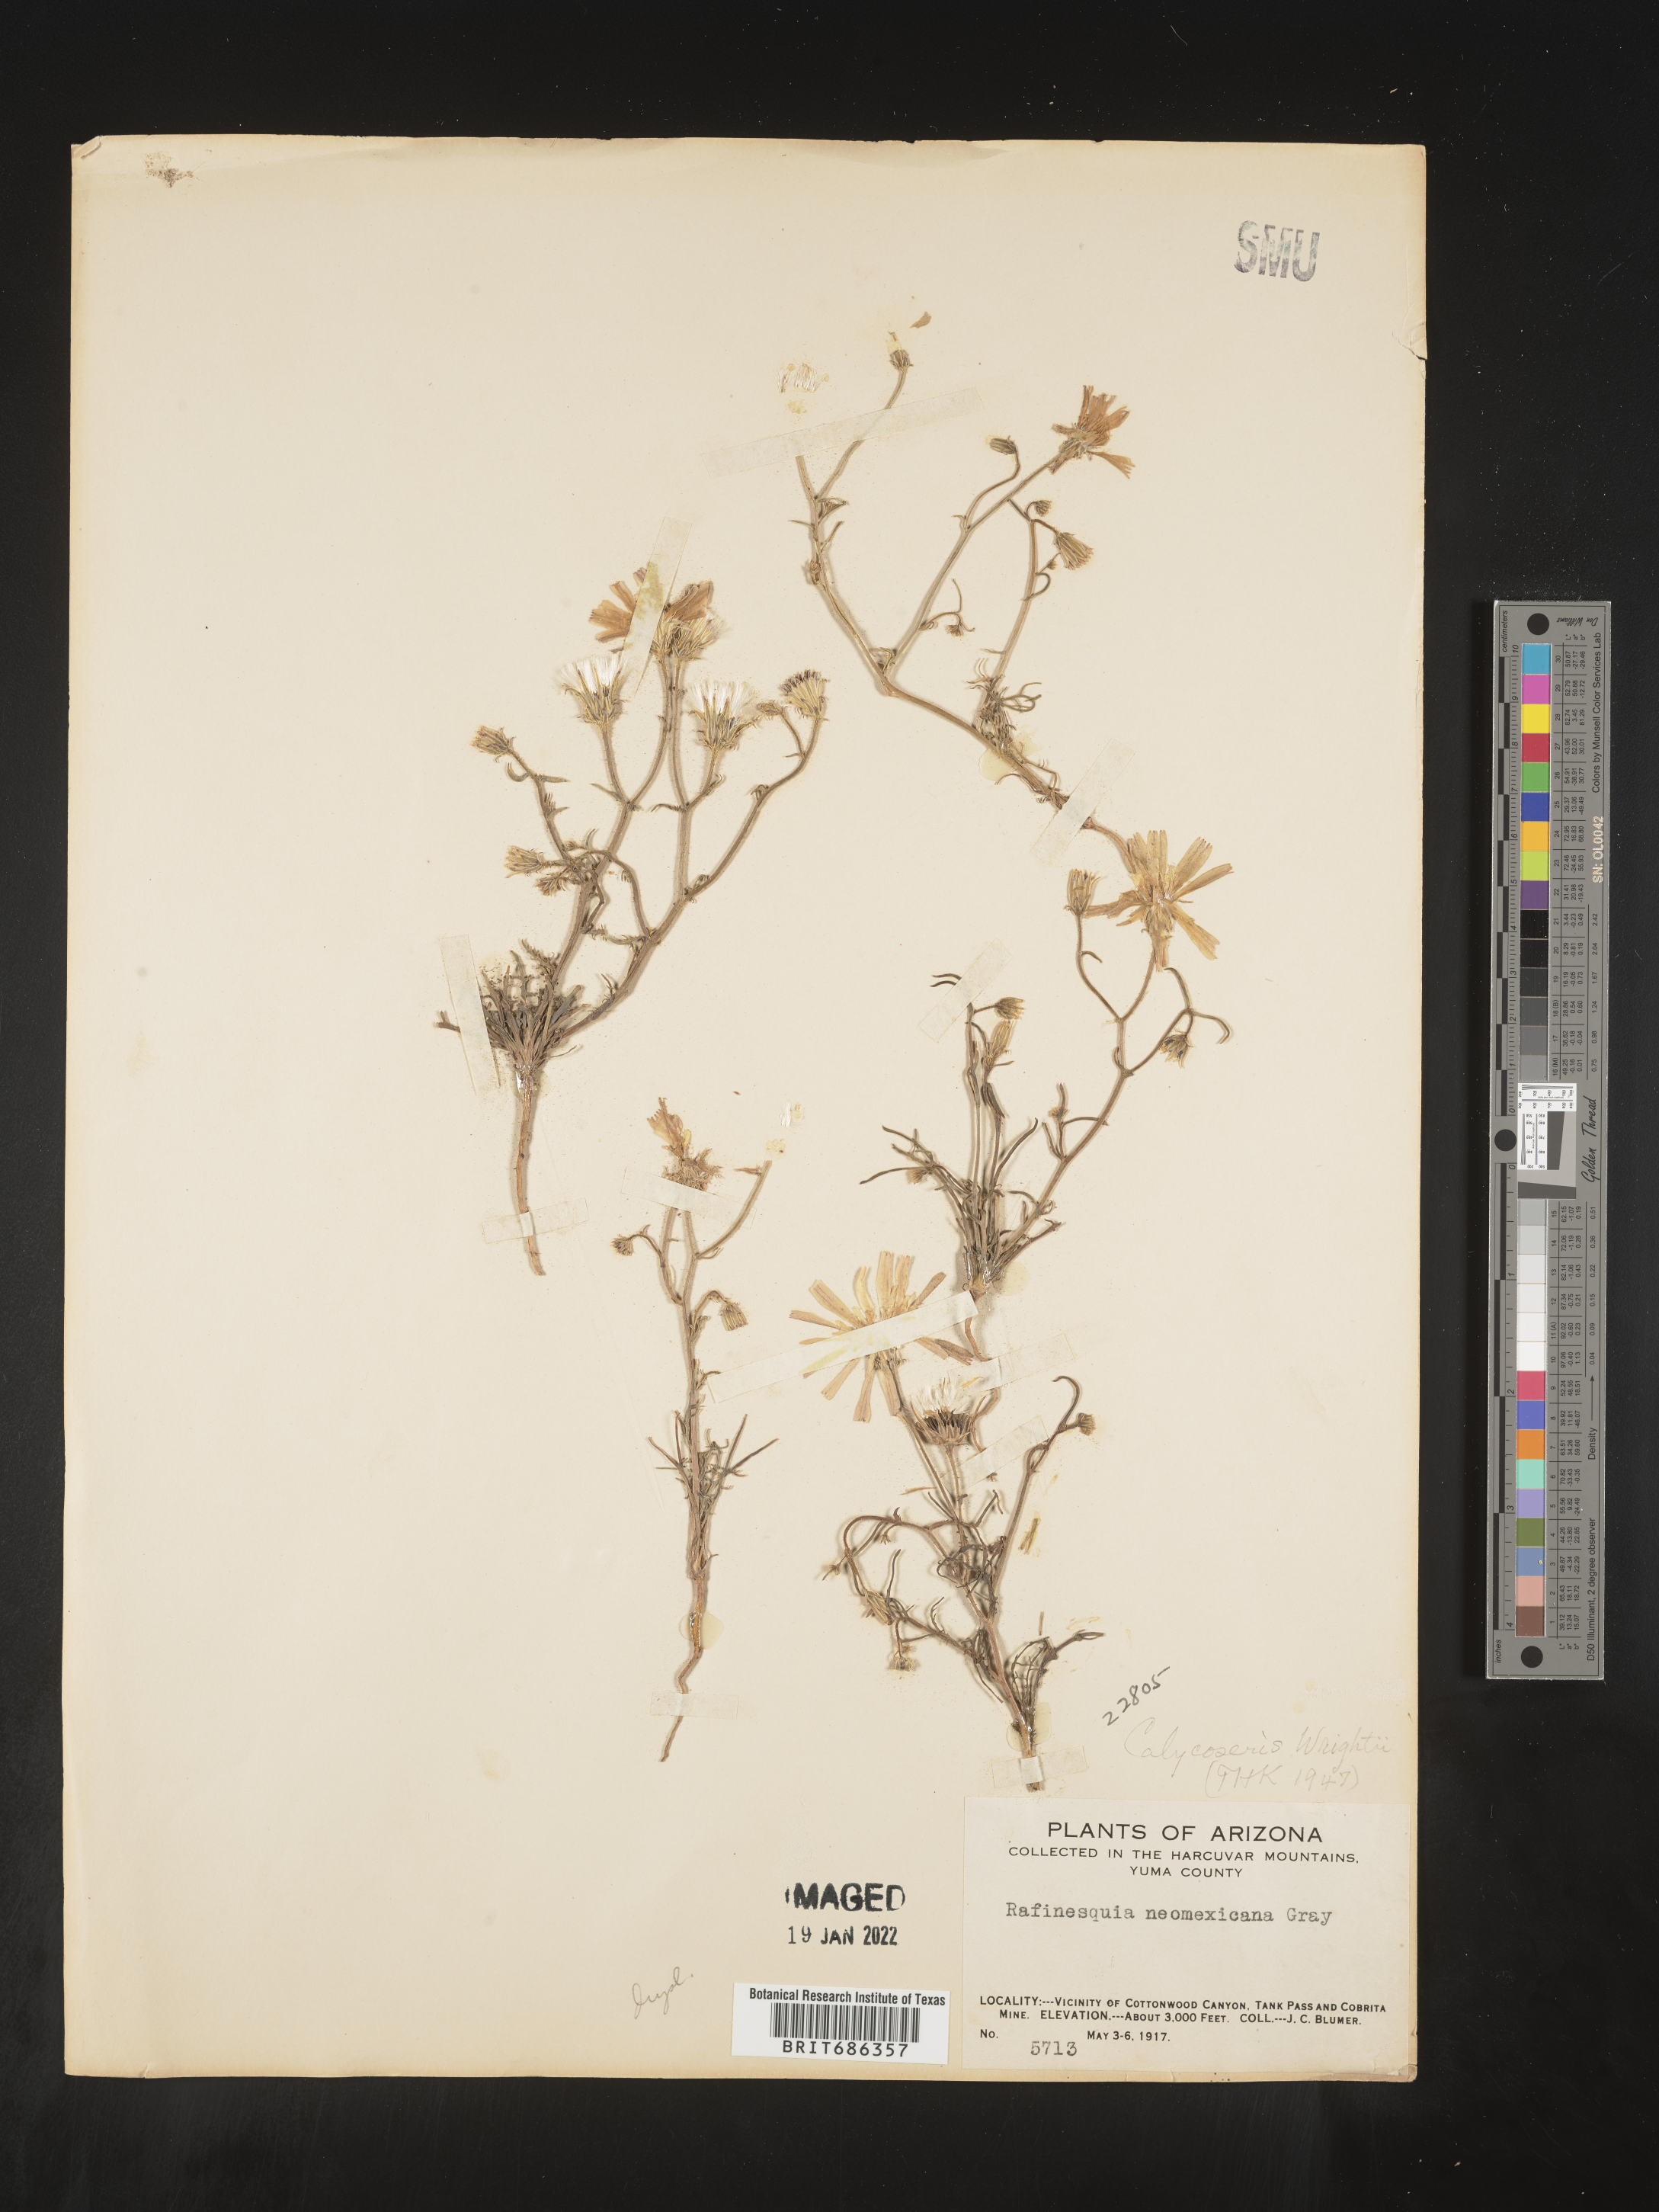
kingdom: Plantae
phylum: Tracheophyta
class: Magnoliopsida
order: Asterales
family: Asteraceae
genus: Calycoseris
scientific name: Calycoseris
